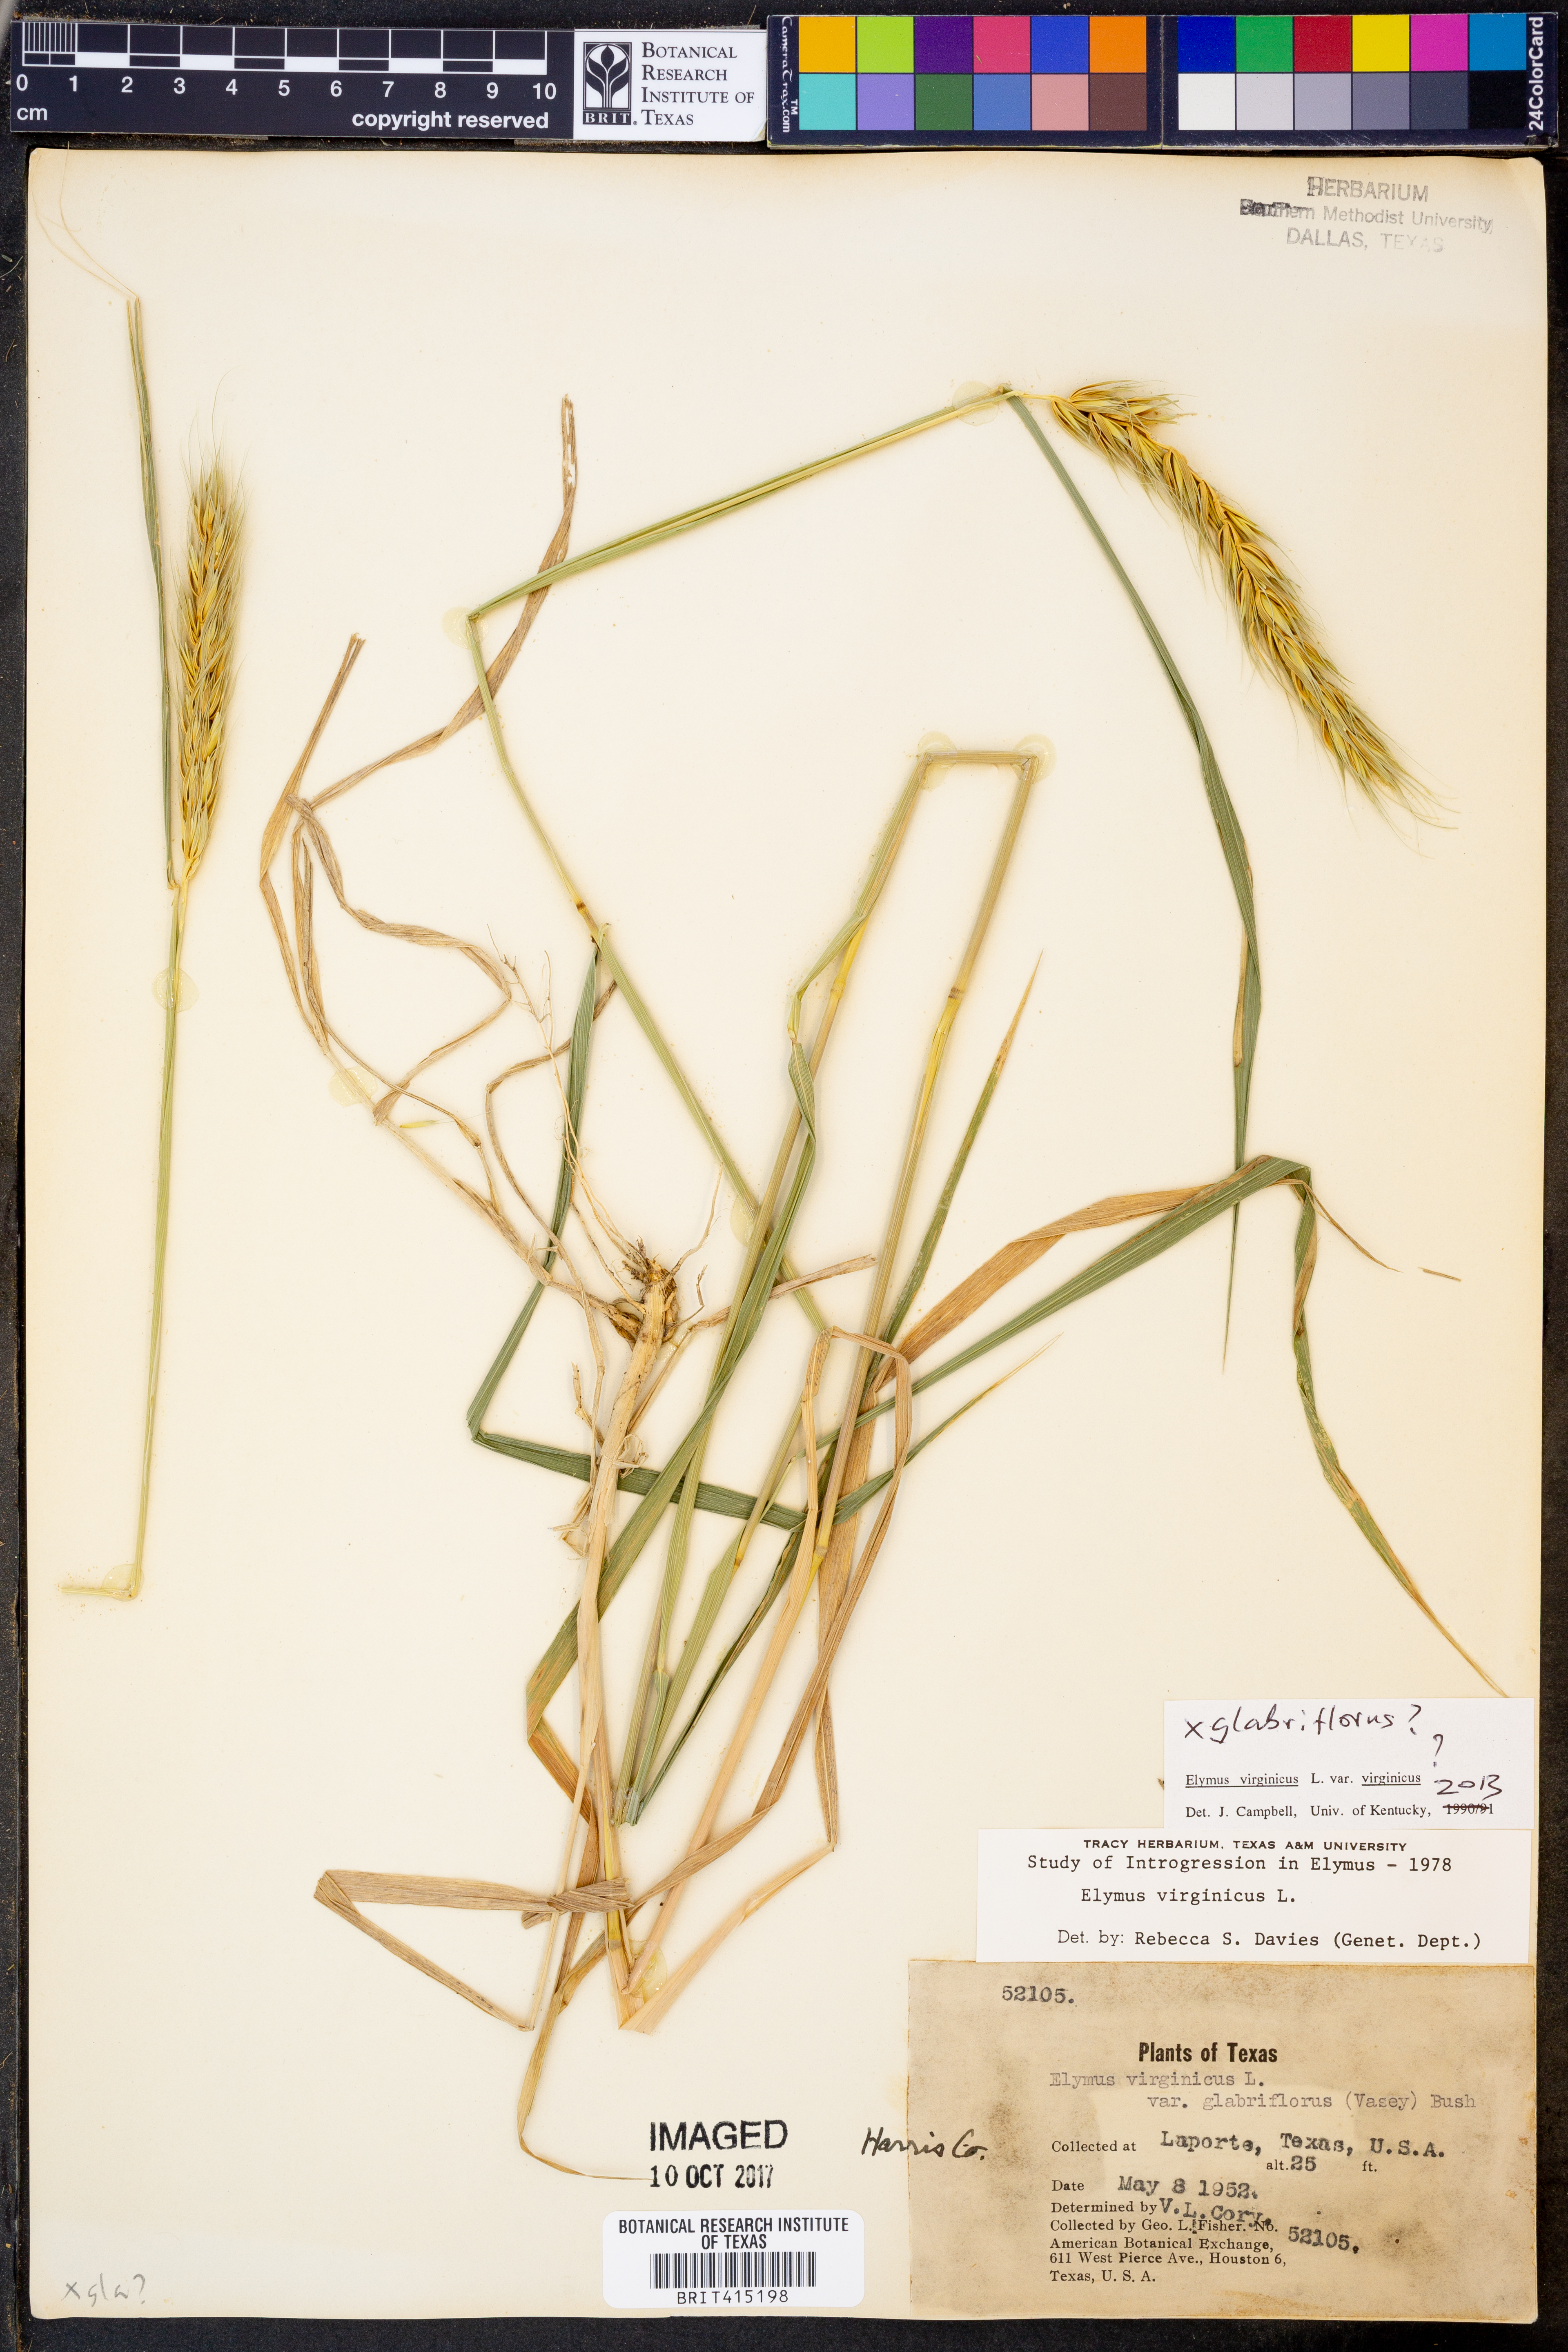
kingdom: Plantae
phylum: Tracheophyta
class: Liliopsida
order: Poales
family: Poaceae
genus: Elymus
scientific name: Elymus virginicus
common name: Common eastern wildrye
